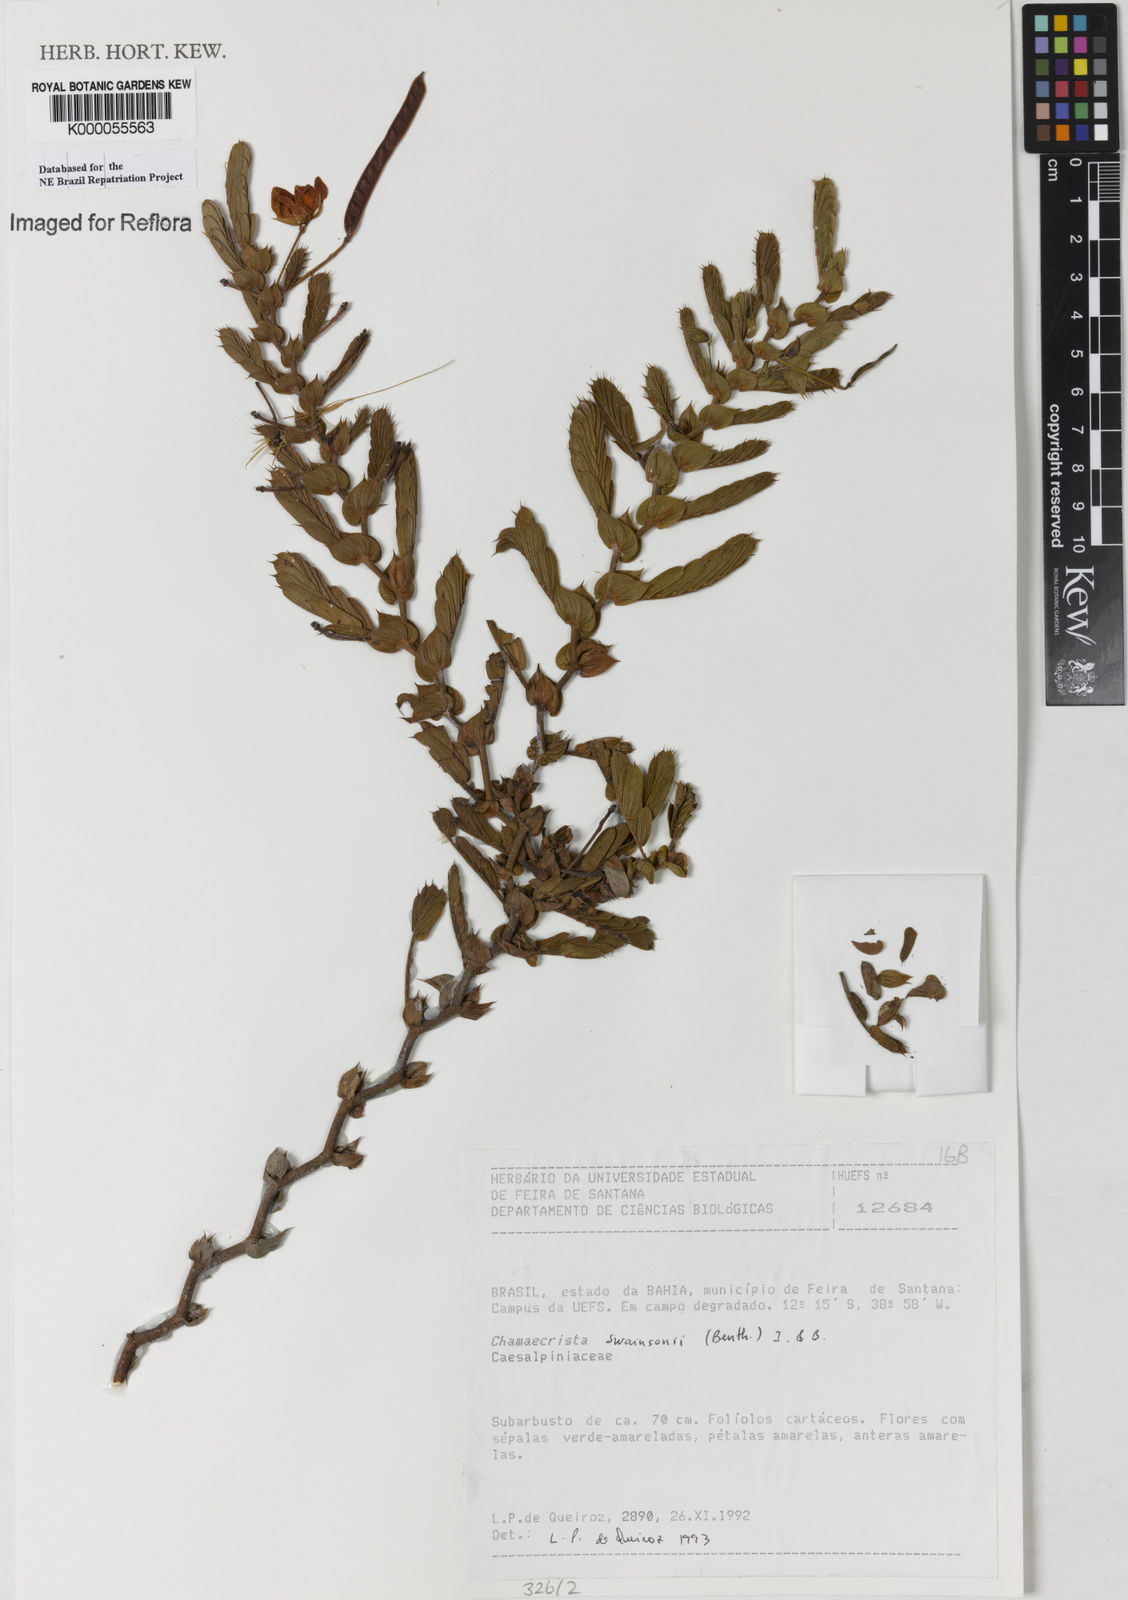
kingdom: Plantae
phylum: Tracheophyta
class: Magnoliopsida
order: Fabales
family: Fabaceae
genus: Chamaecrista
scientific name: Chamaecrista swainsonii
